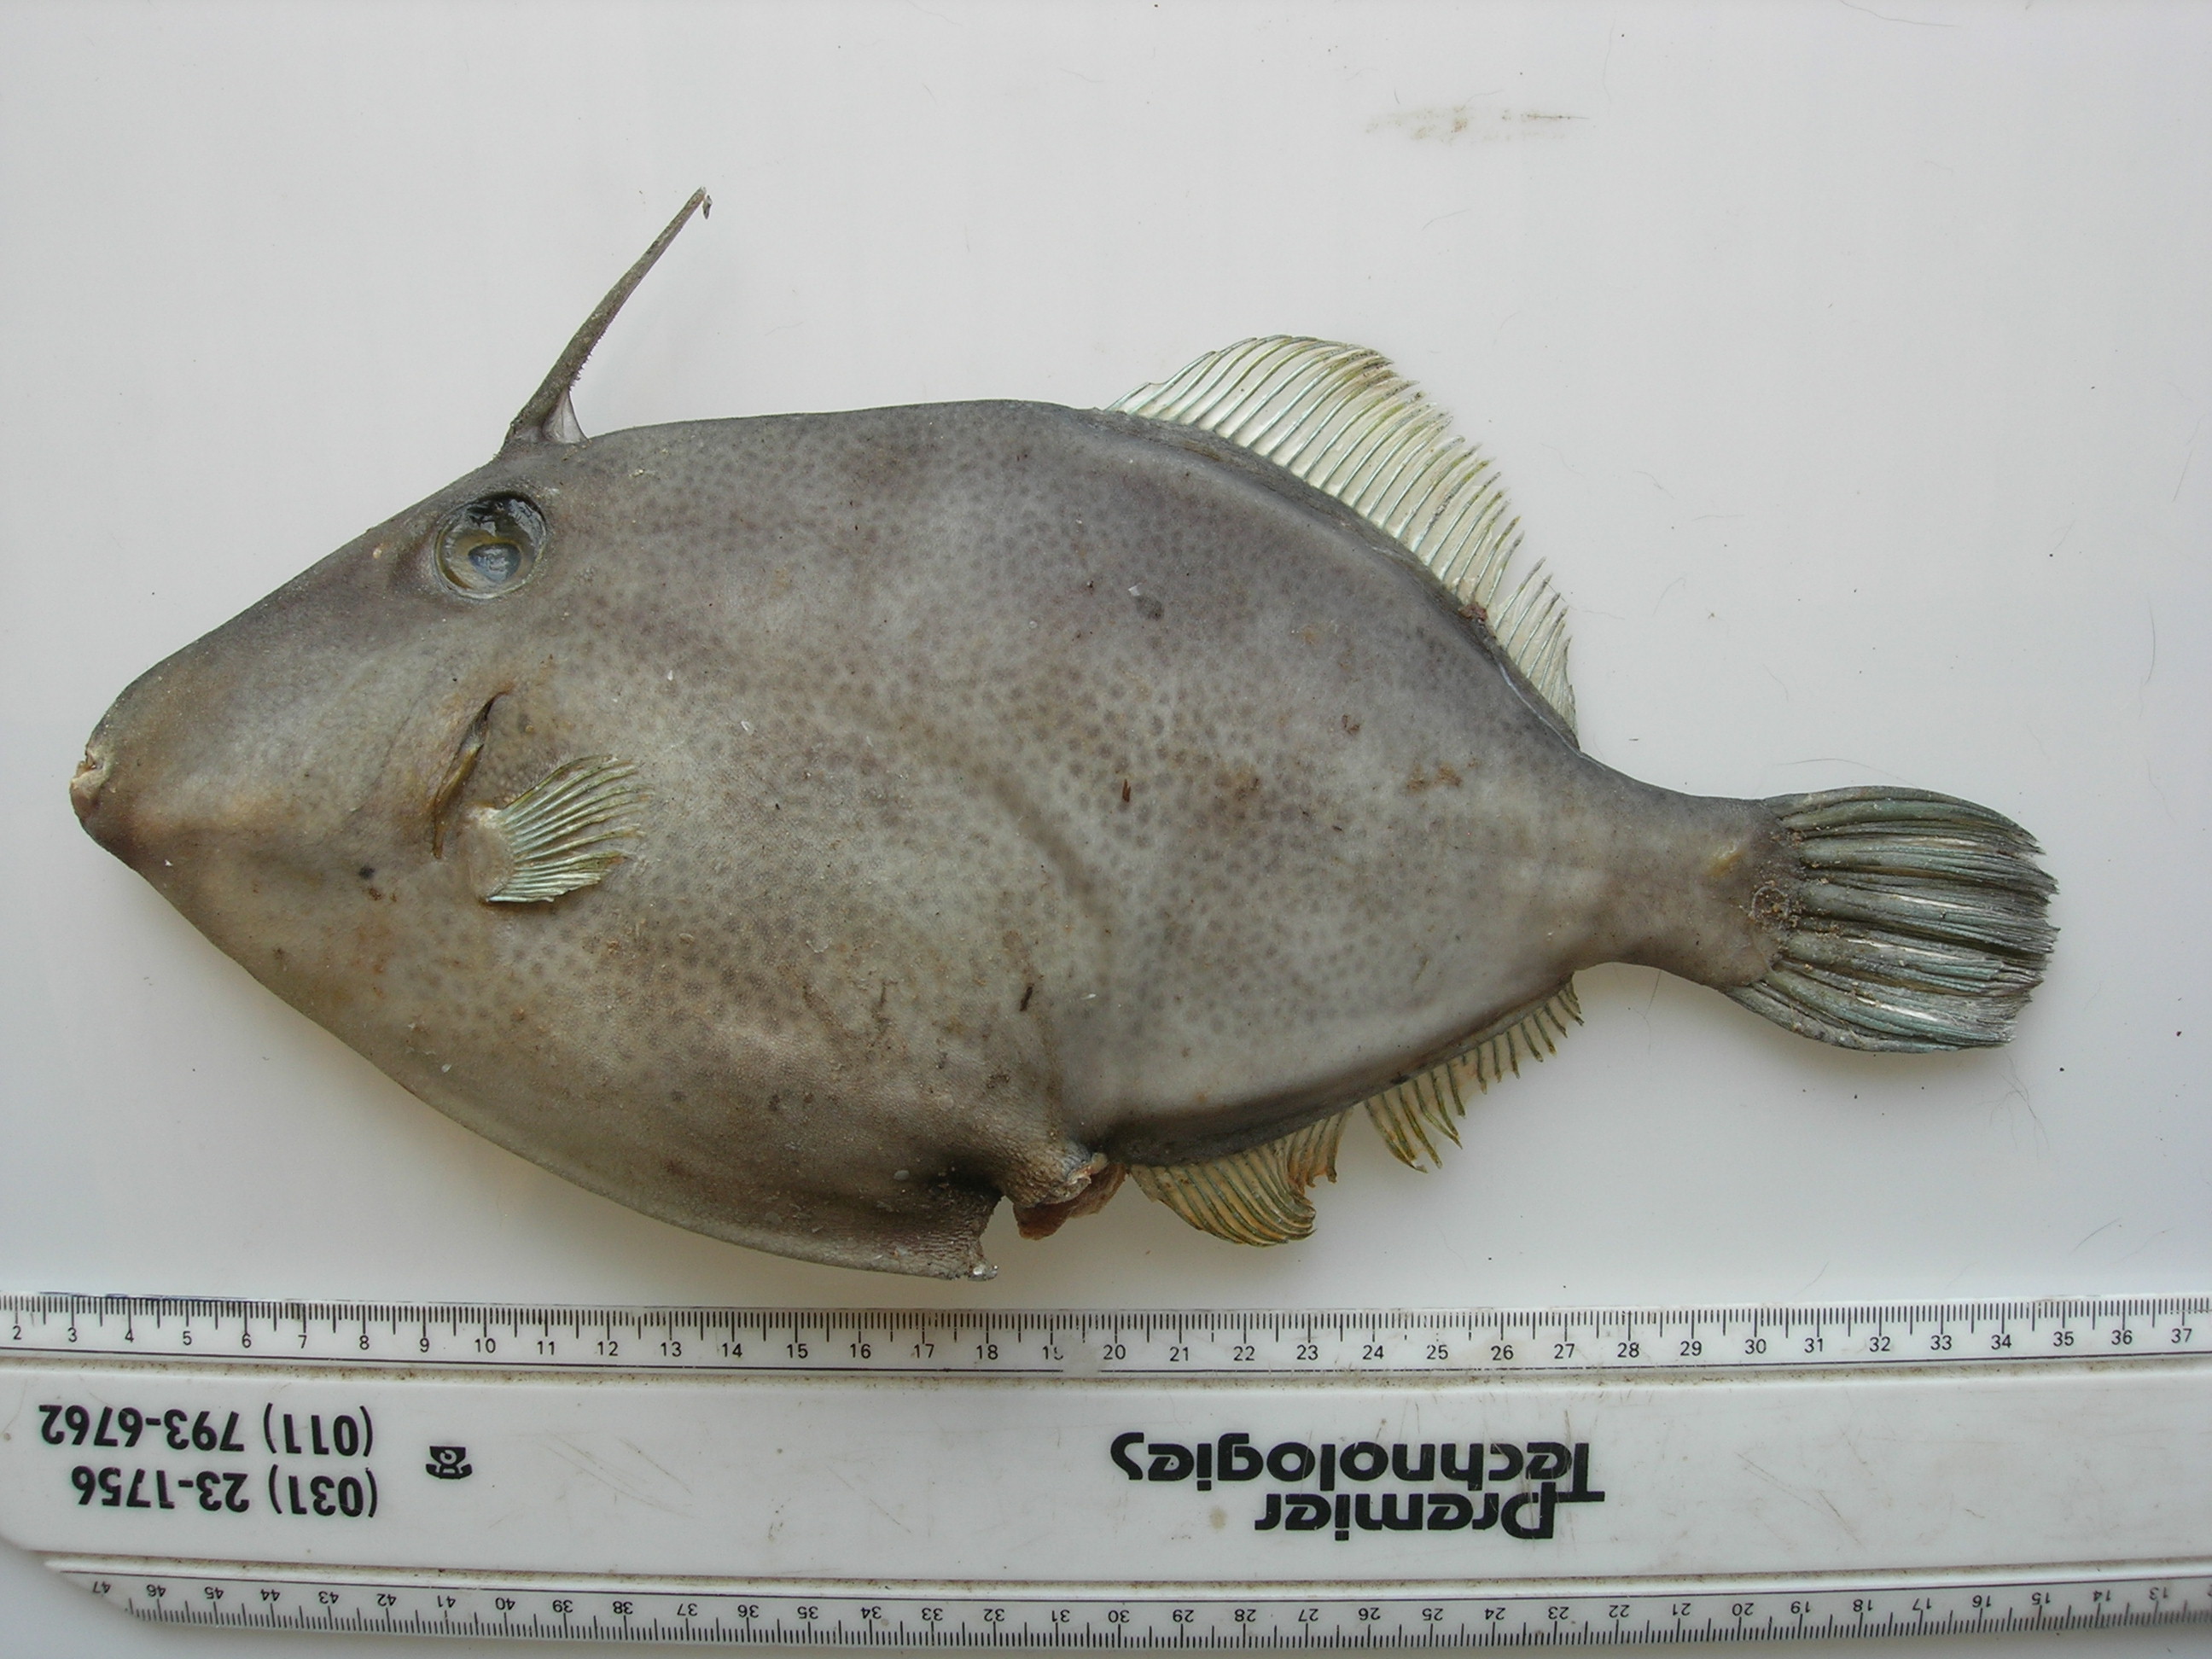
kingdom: Animalia
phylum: Chordata
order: Tetraodontiformes
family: Monacanthidae
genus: Thamnaconus
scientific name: Thamnaconus arenaceus
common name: Roughskinned filefish
